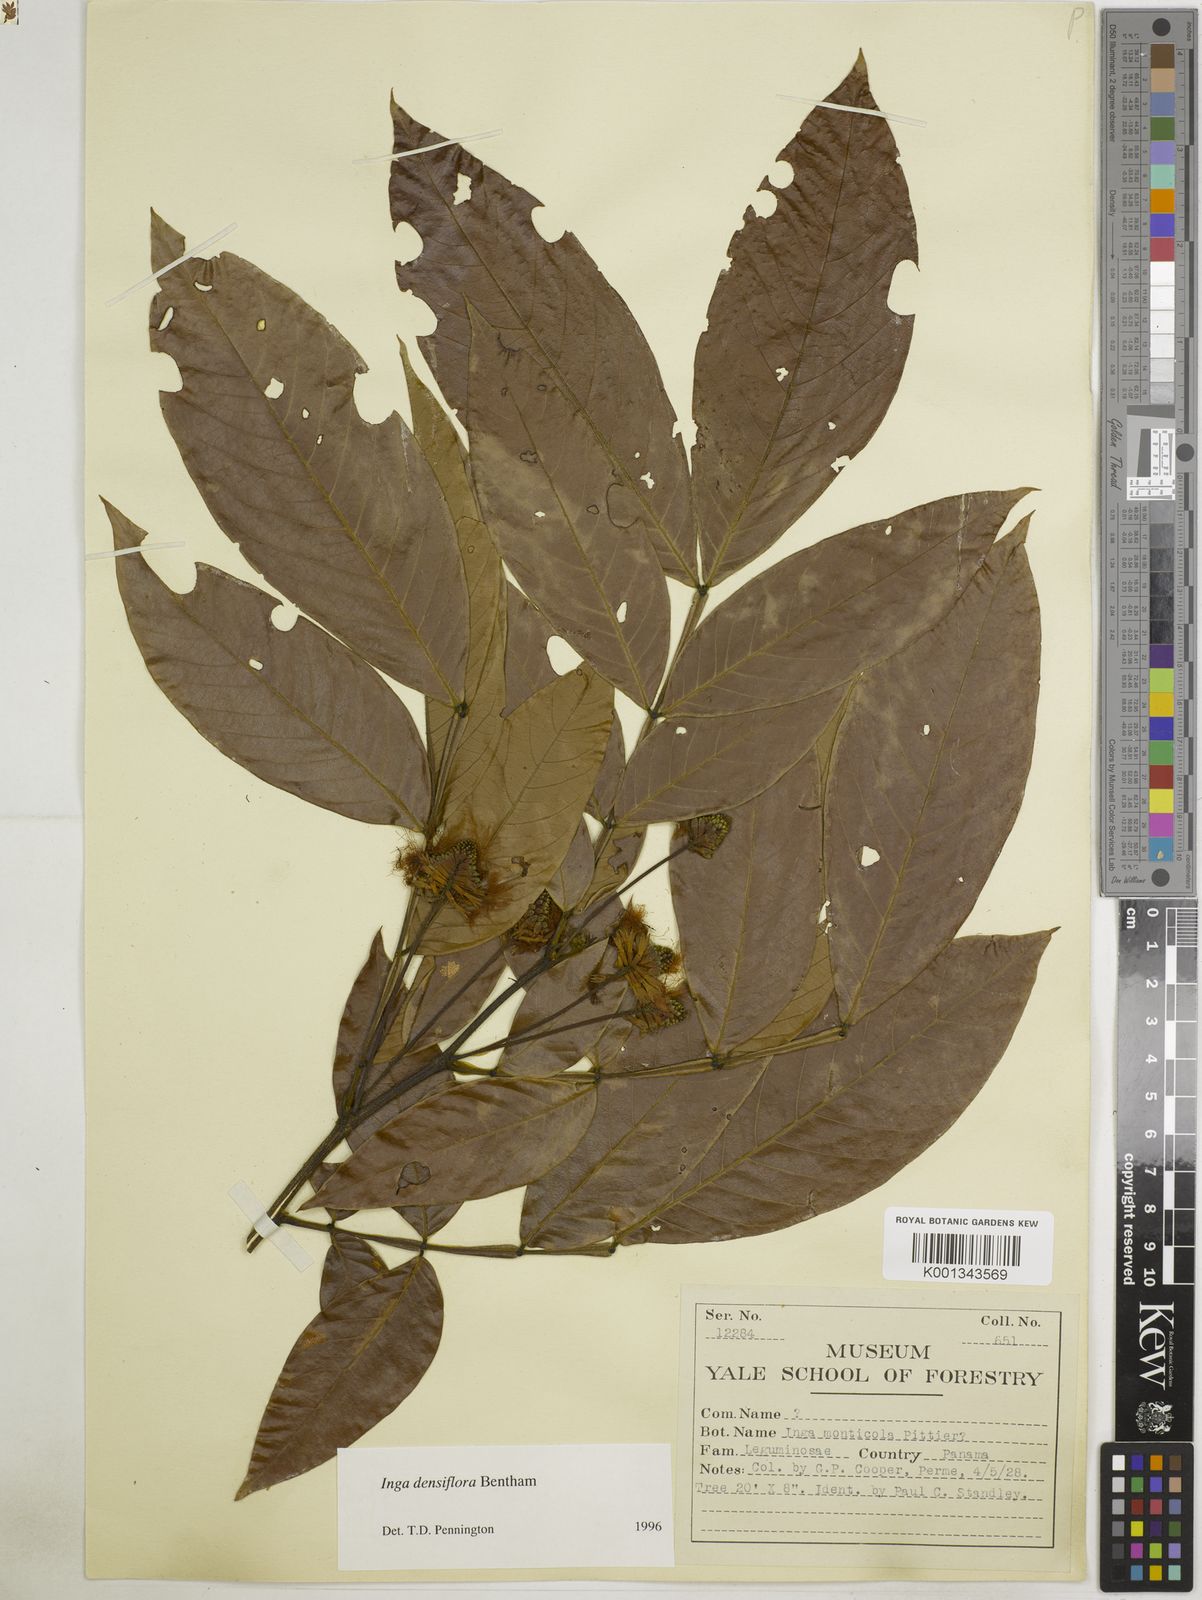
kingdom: Plantae
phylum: Tracheophyta
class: Magnoliopsida
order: Fabales
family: Fabaceae
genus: Inga
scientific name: Inga striata
